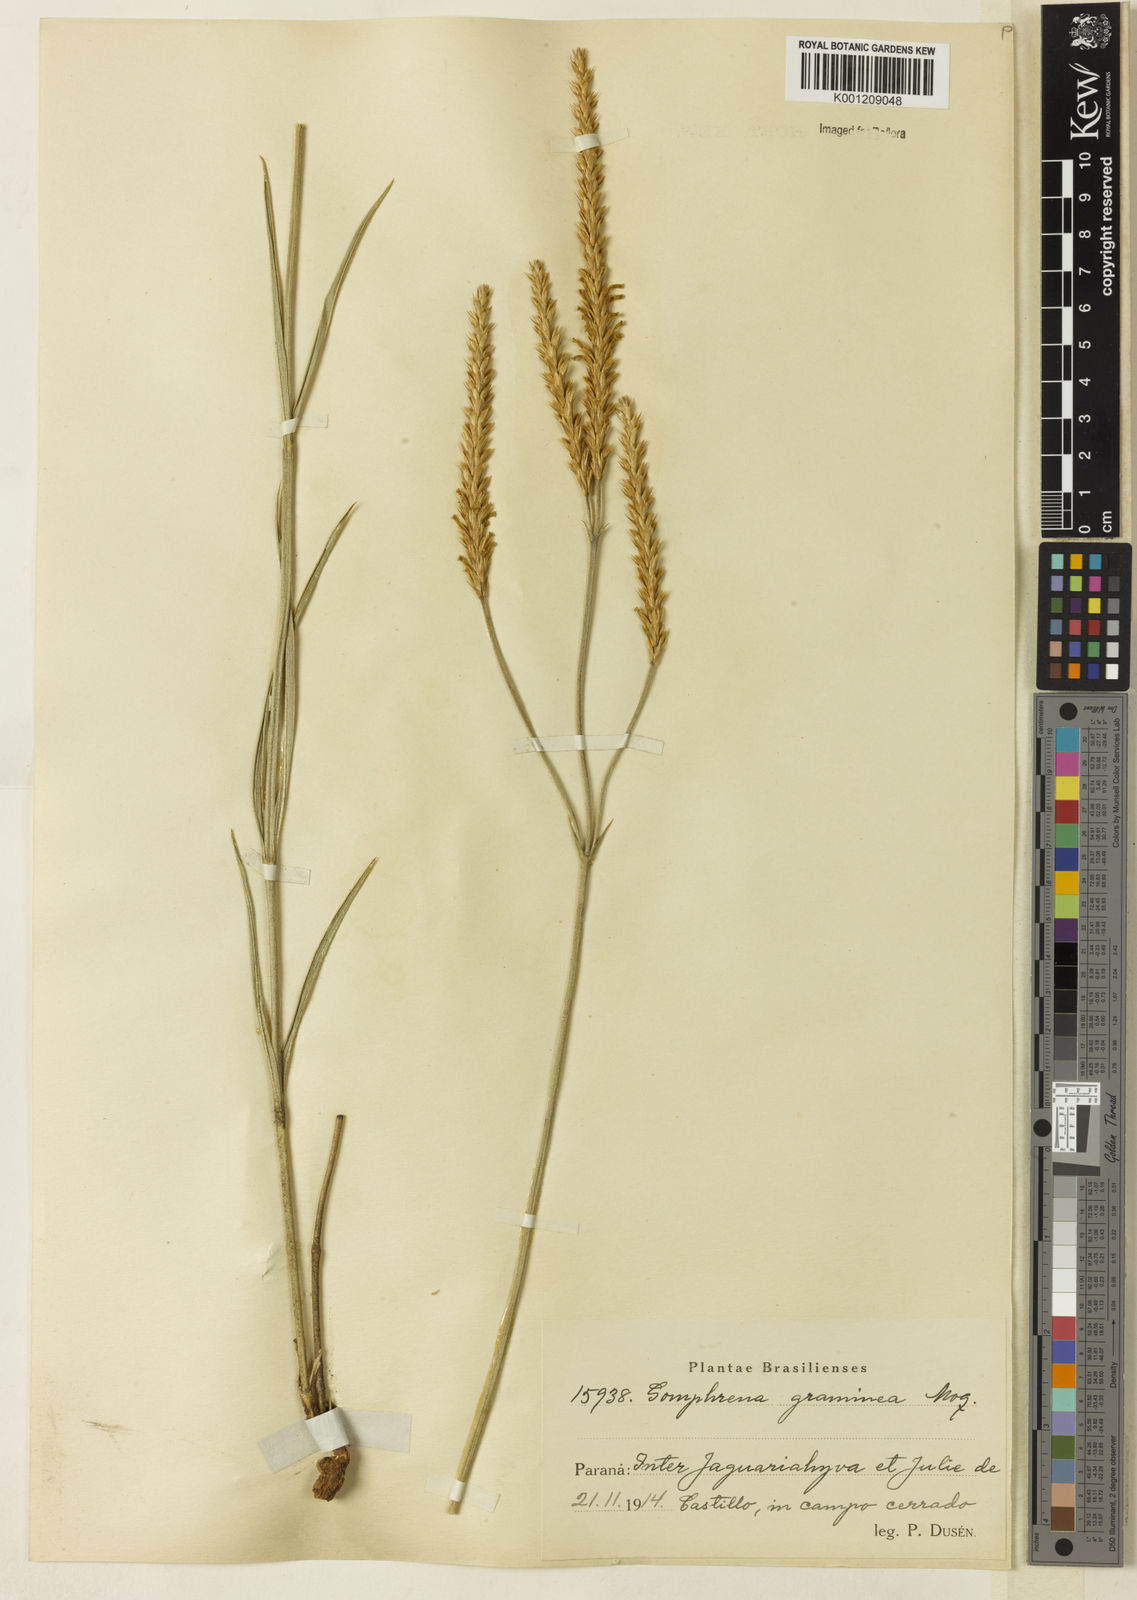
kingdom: Plantae
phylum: Tracheophyta
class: Magnoliopsida
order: Caryophyllales
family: Amaranthaceae
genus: Gomphrena
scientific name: Gomphrena graminea
